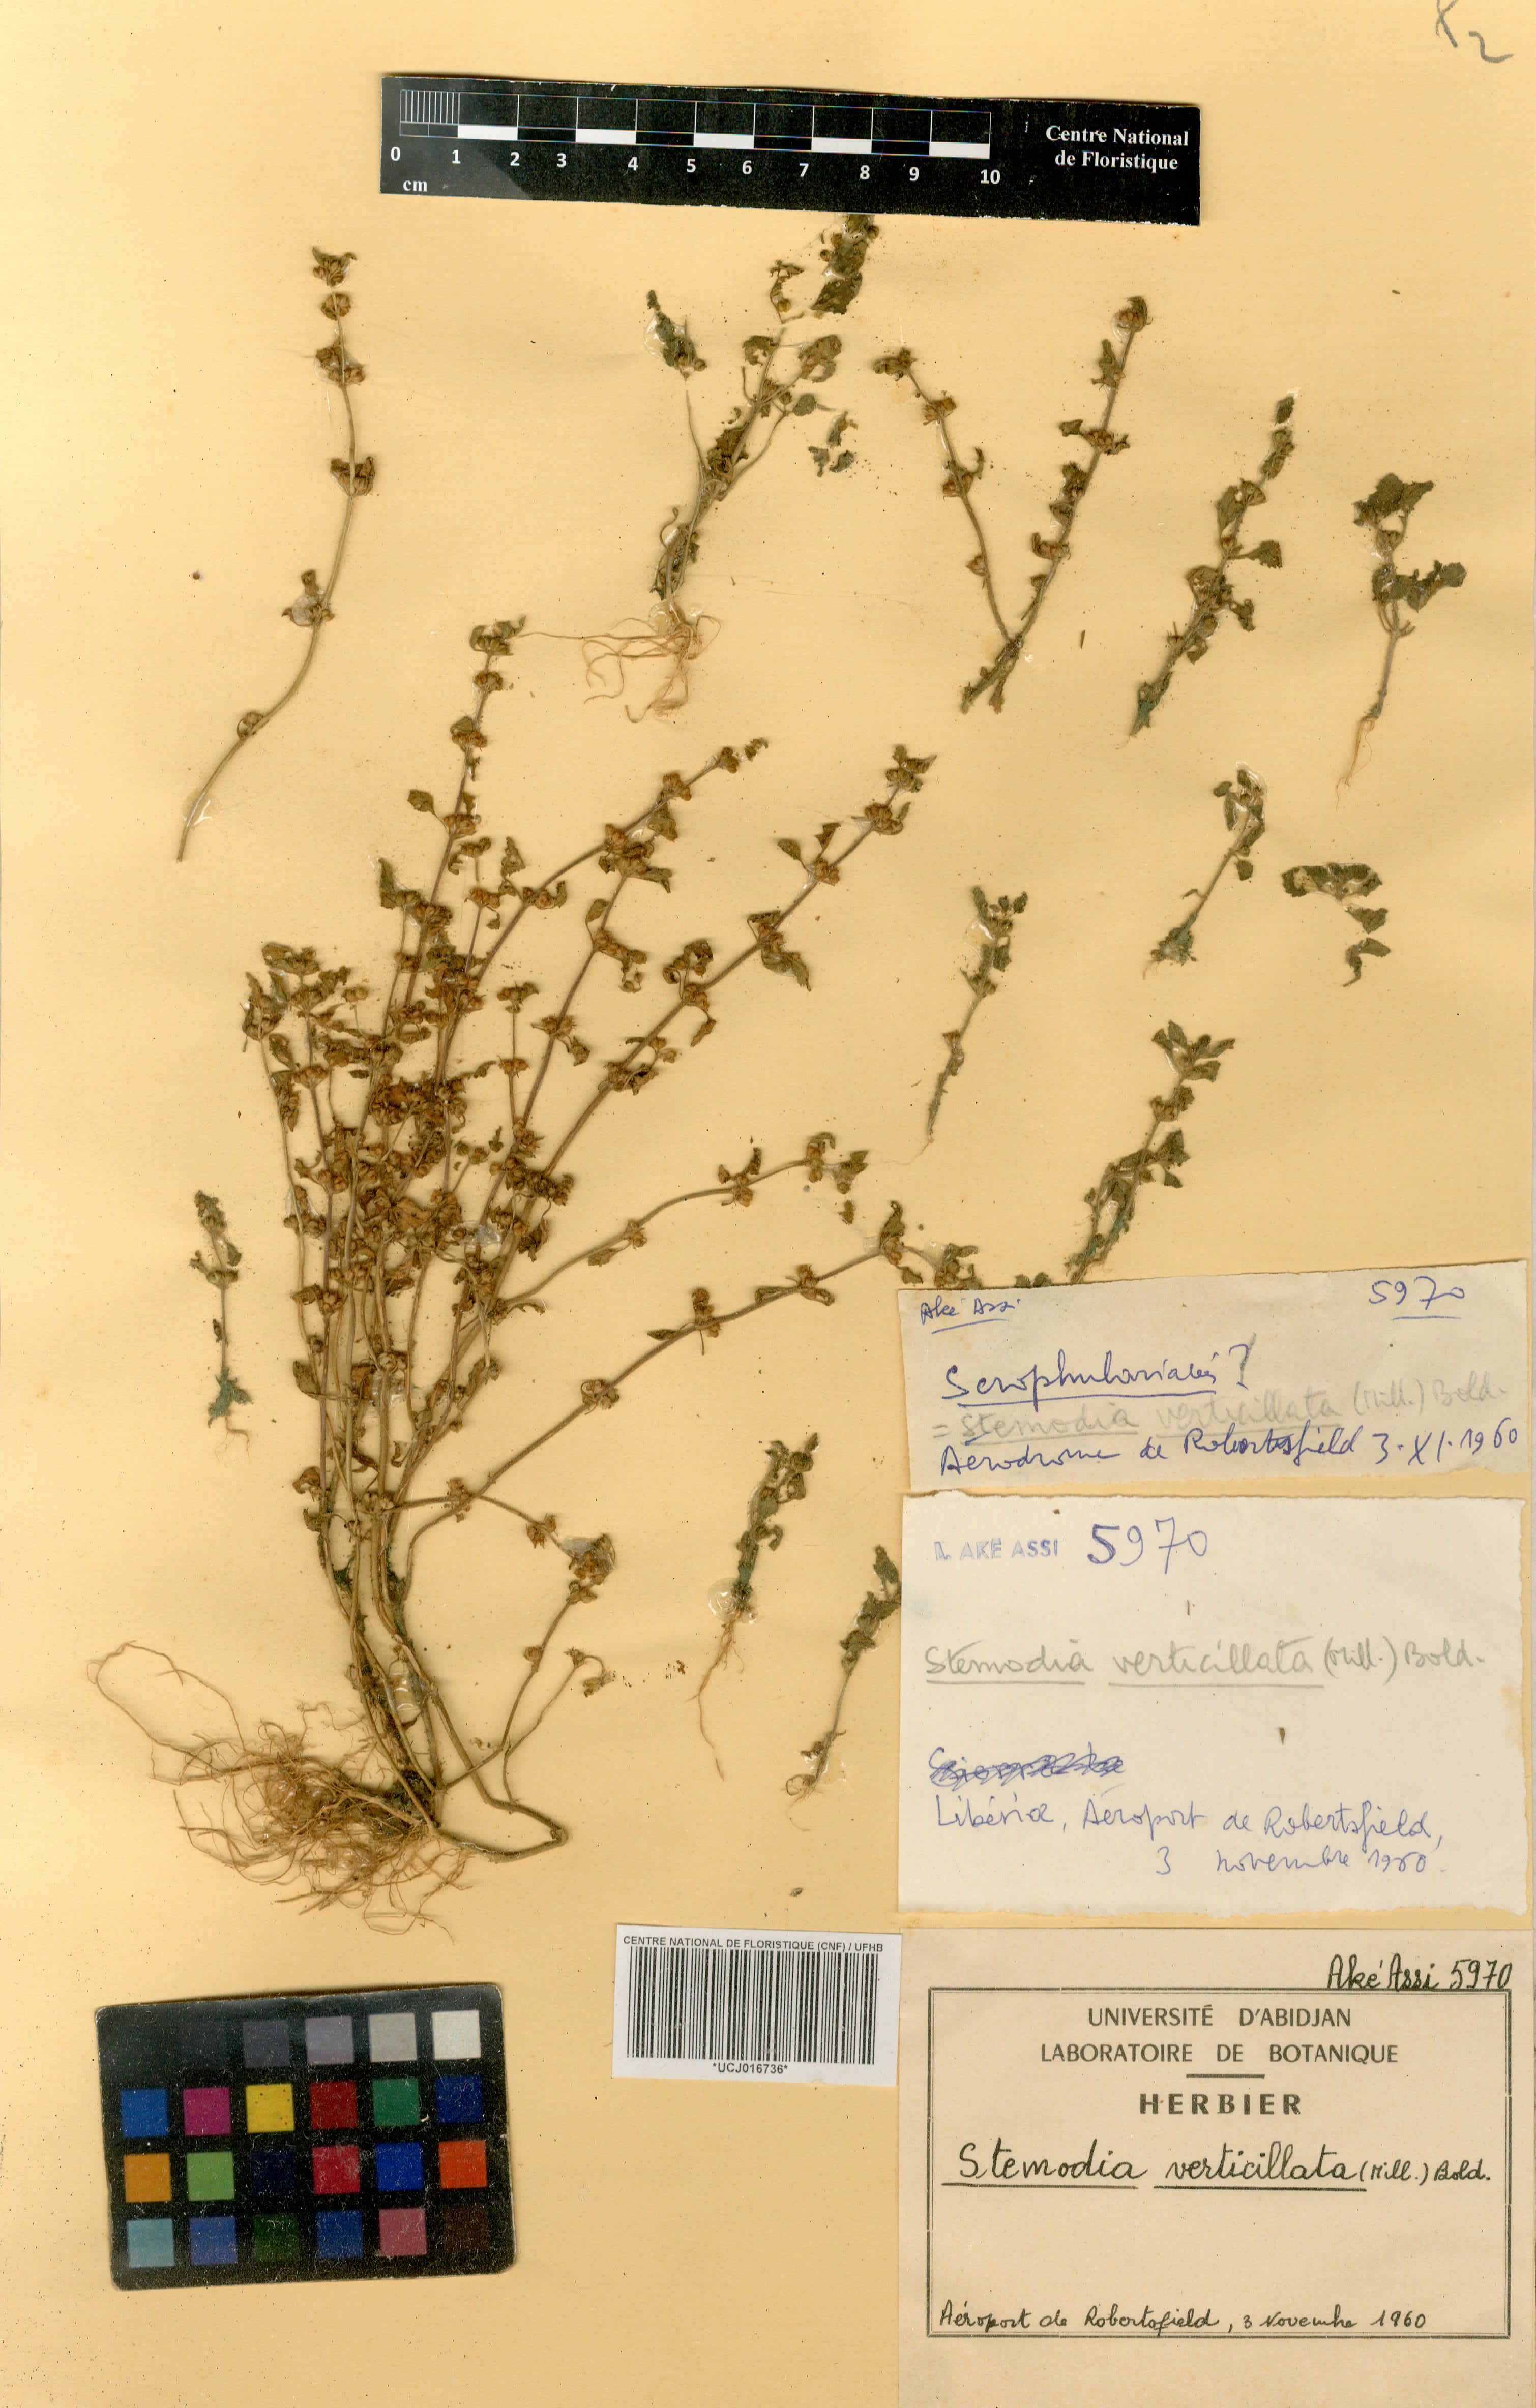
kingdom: Plantae
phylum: Tracheophyta
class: Magnoliopsida
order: Lamiales
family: Plantaginaceae
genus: Stemodia
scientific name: Stemodia verticillata
